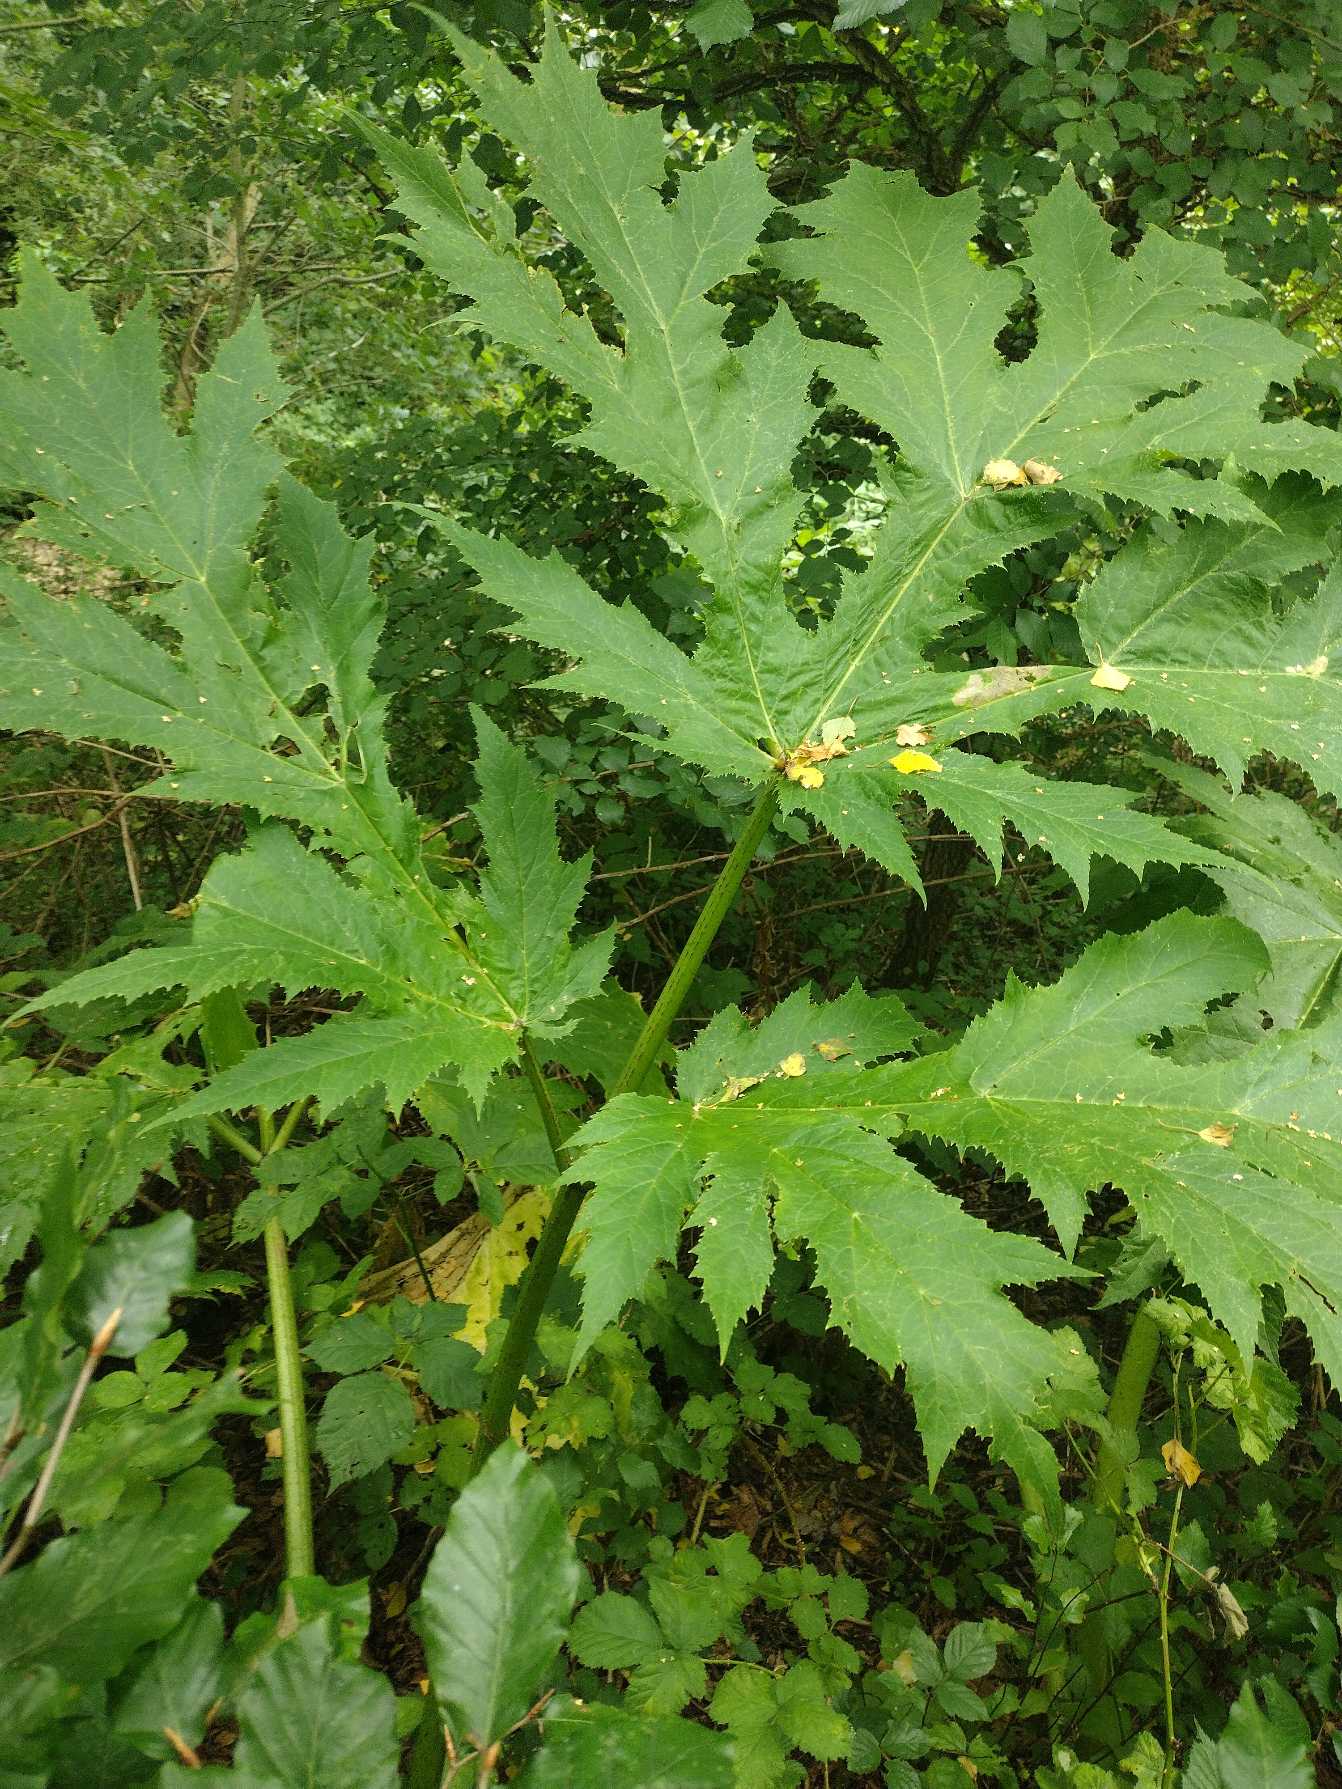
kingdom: Plantae
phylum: Tracheophyta
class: Magnoliopsida
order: Apiales
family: Apiaceae
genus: Heracleum
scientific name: Heracleum mantegazzianum
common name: Kæmpe-bjørneklo
